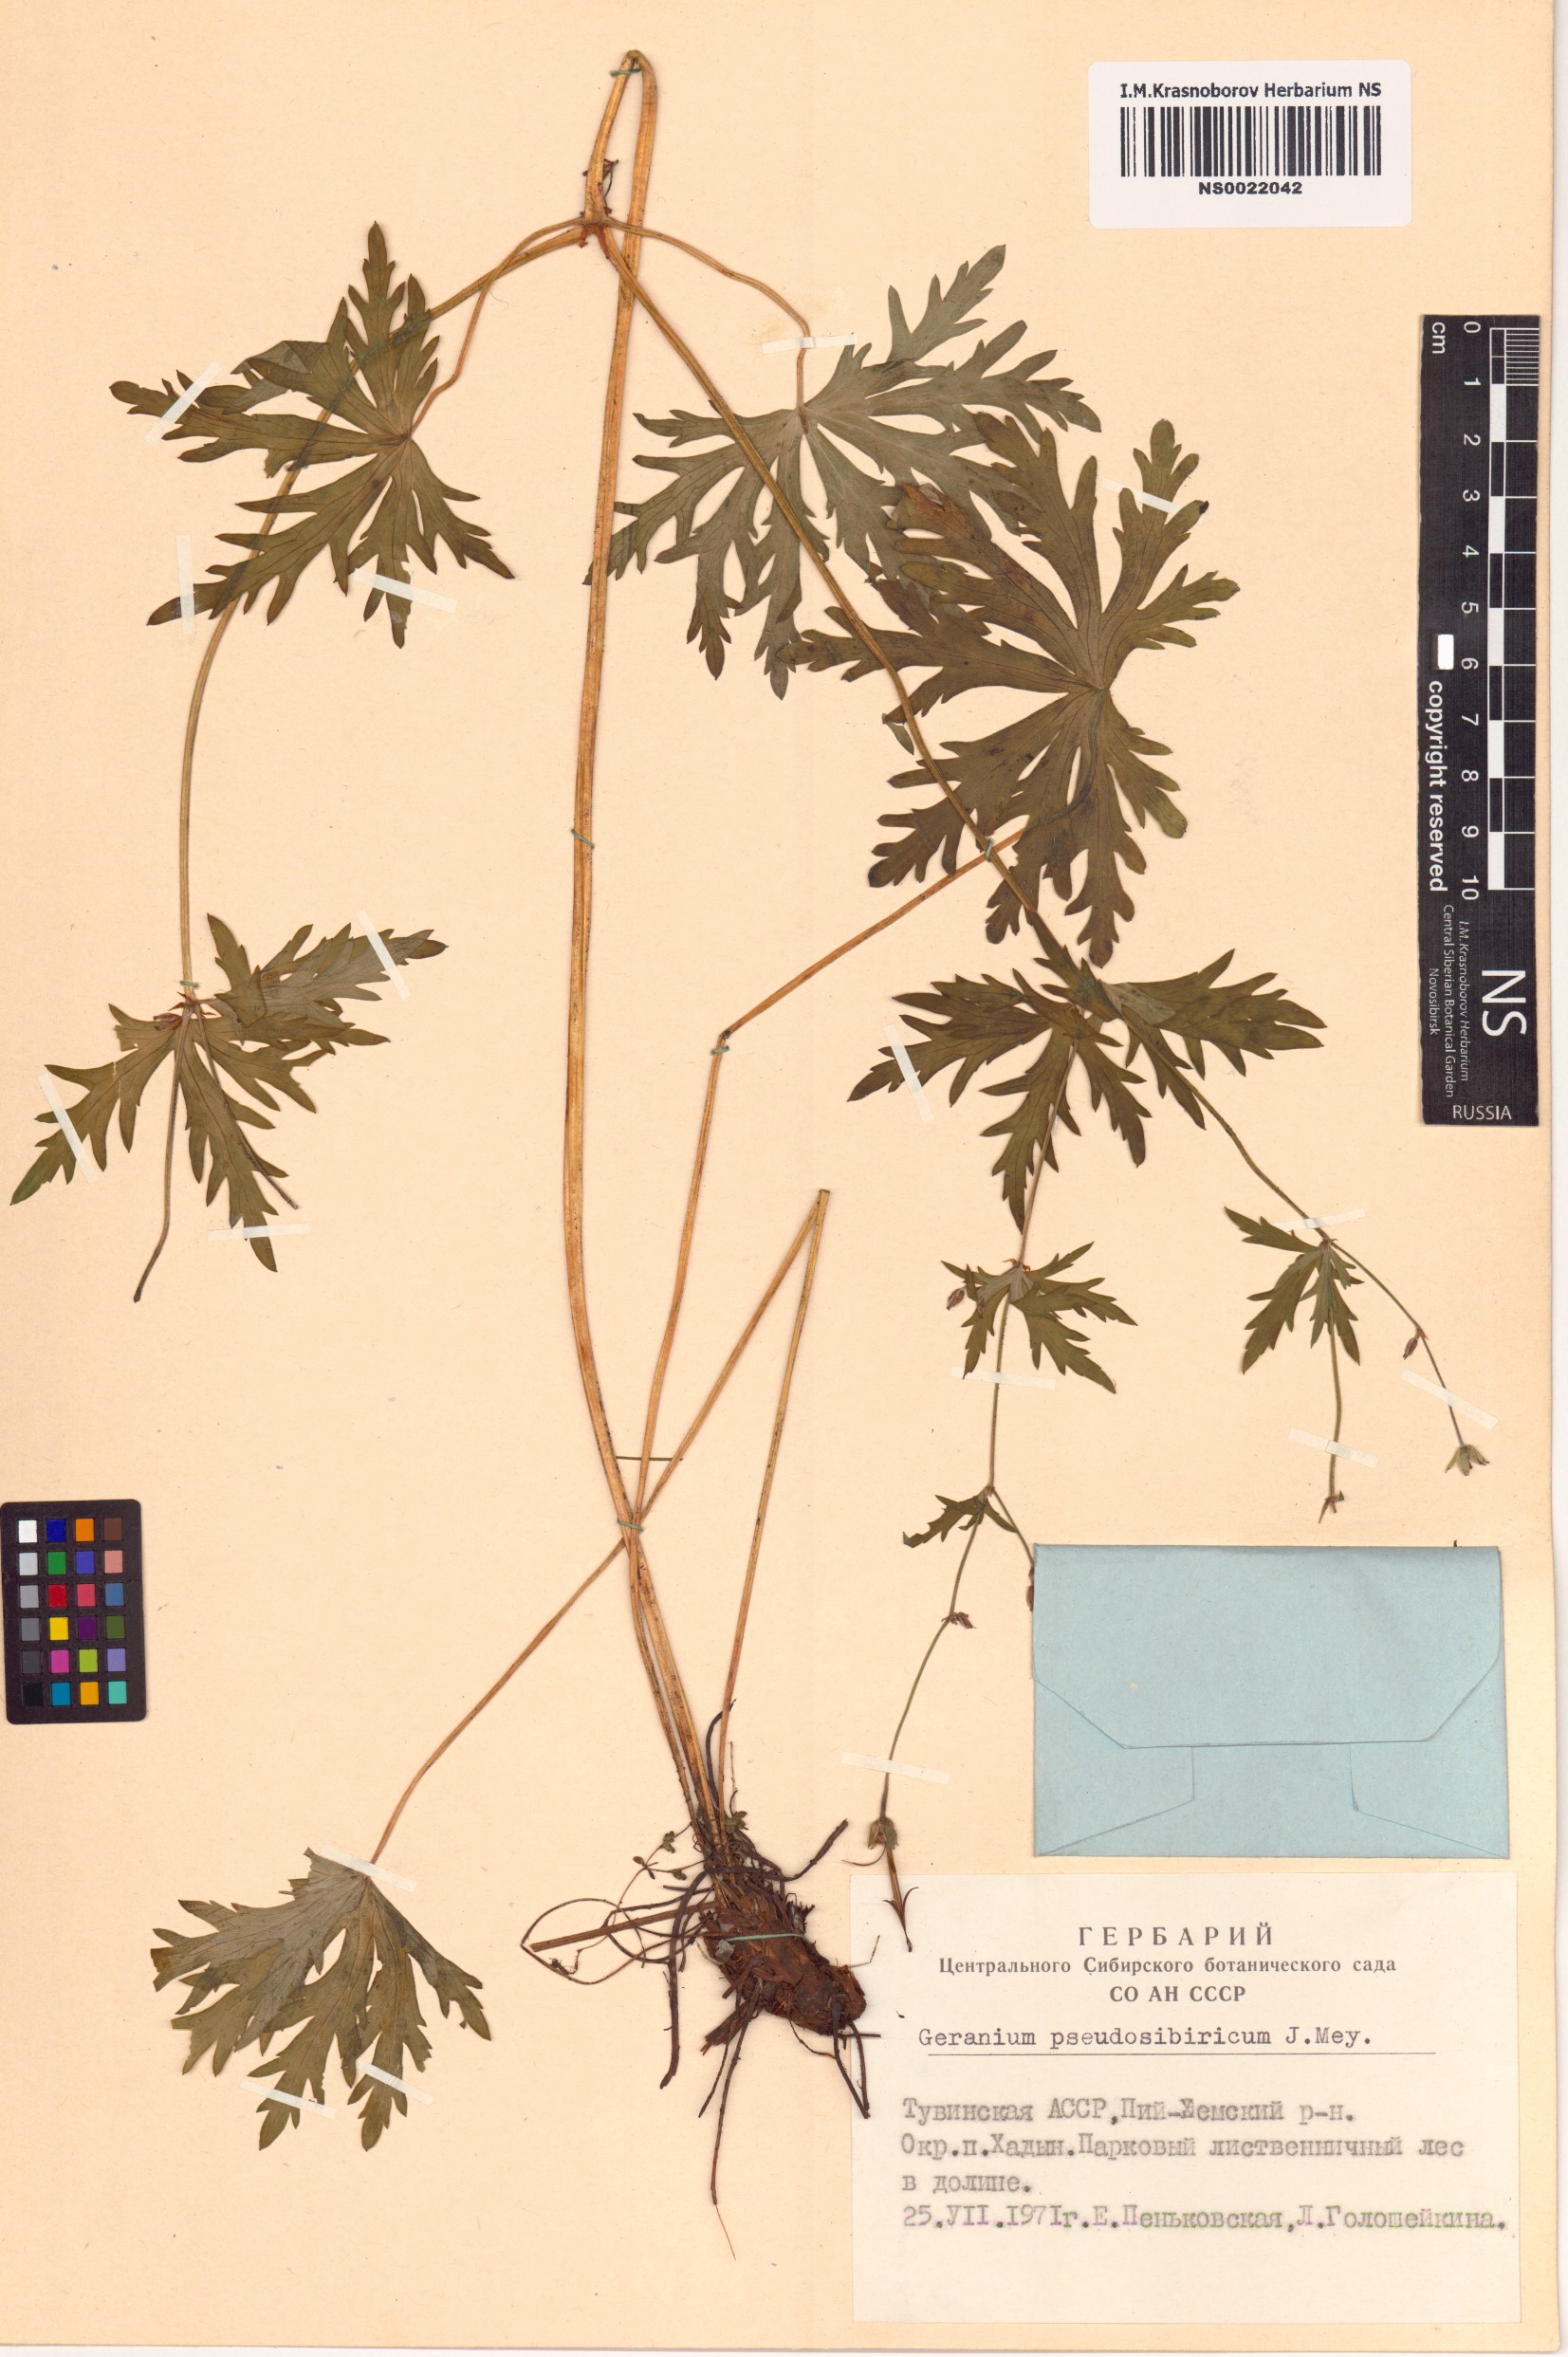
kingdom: Plantae
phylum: Tracheophyta
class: Magnoliopsida
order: Geraniales
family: Geraniaceae
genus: Geranium
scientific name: Geranium pseudosibiricum
